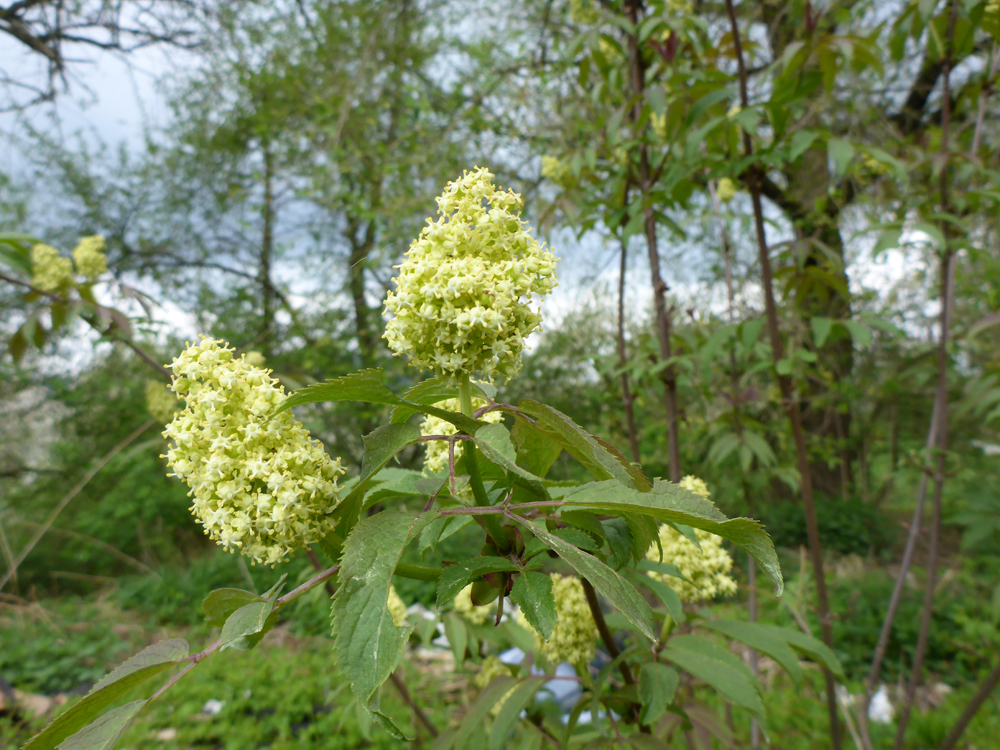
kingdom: Plantae
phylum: Tracheophyta
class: Magnoliopsida
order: Dipsacales
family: Viburnaceae
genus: Sambucus
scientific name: Sambucus racemosa
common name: Red-berried elder
